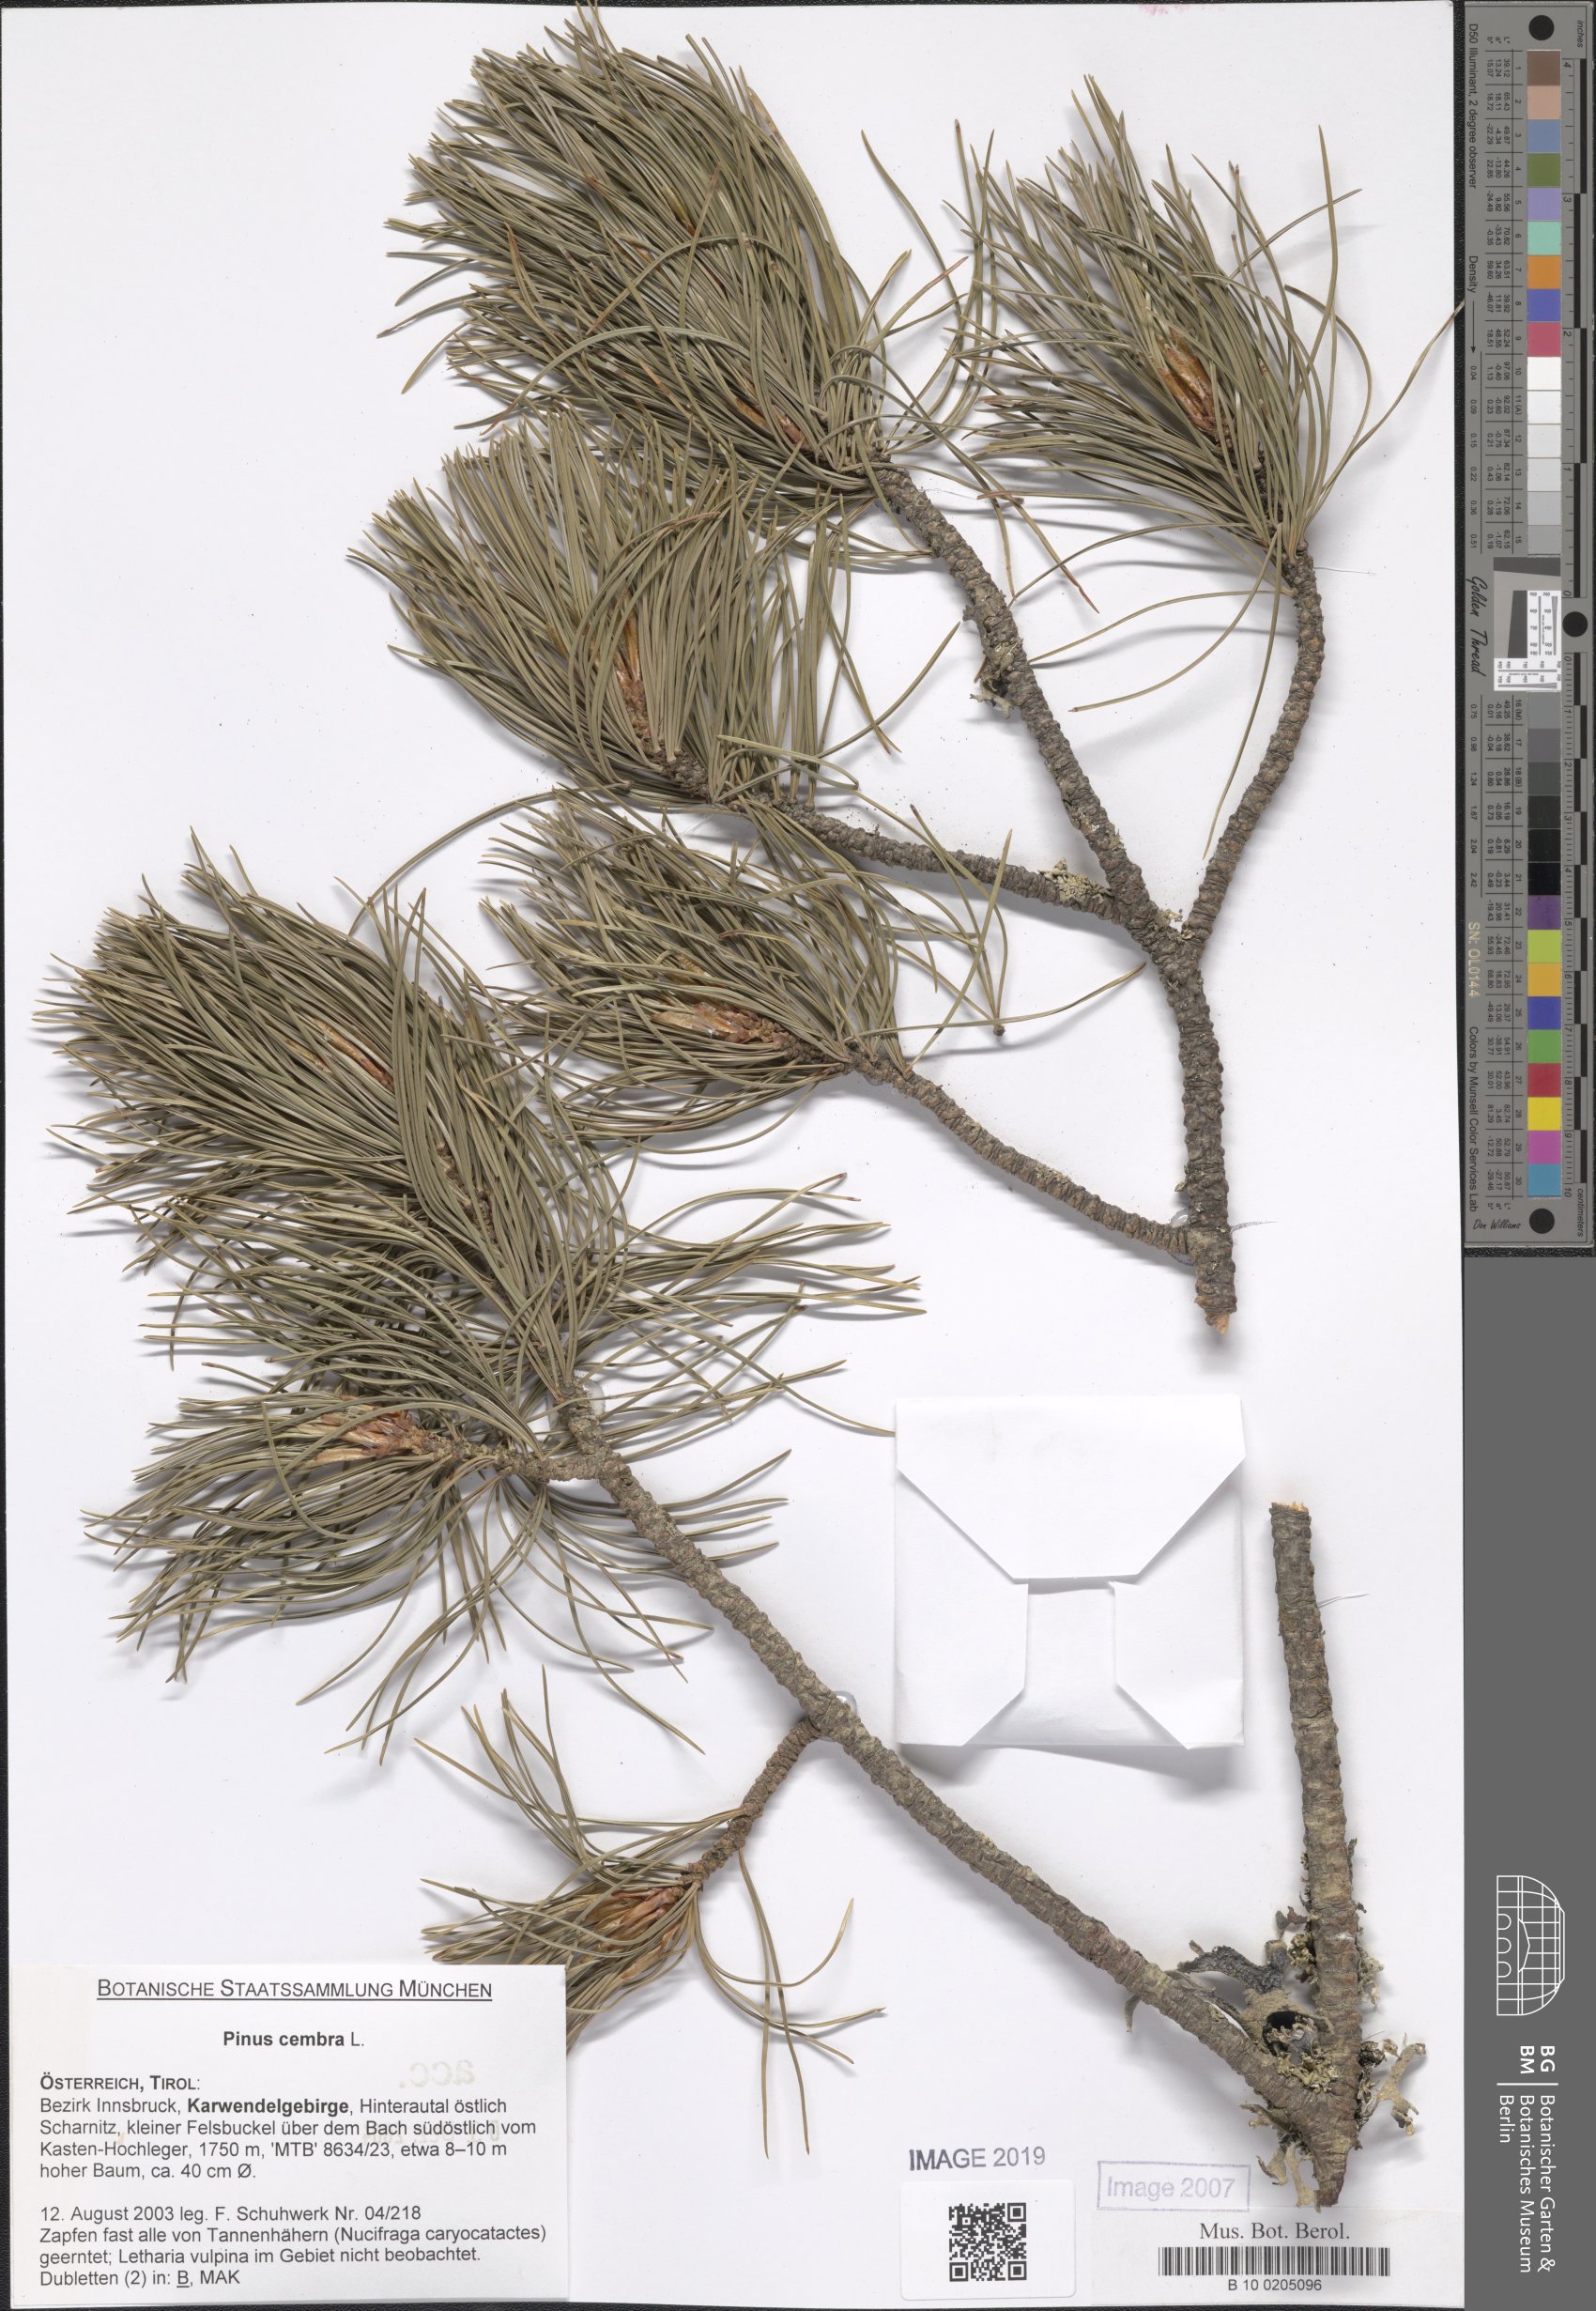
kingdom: Plantae
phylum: Tracheophyta
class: Pinopsida
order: Pinales
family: Pinaceae
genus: Pinus
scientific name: Pinus cembra
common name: Arolla pine
